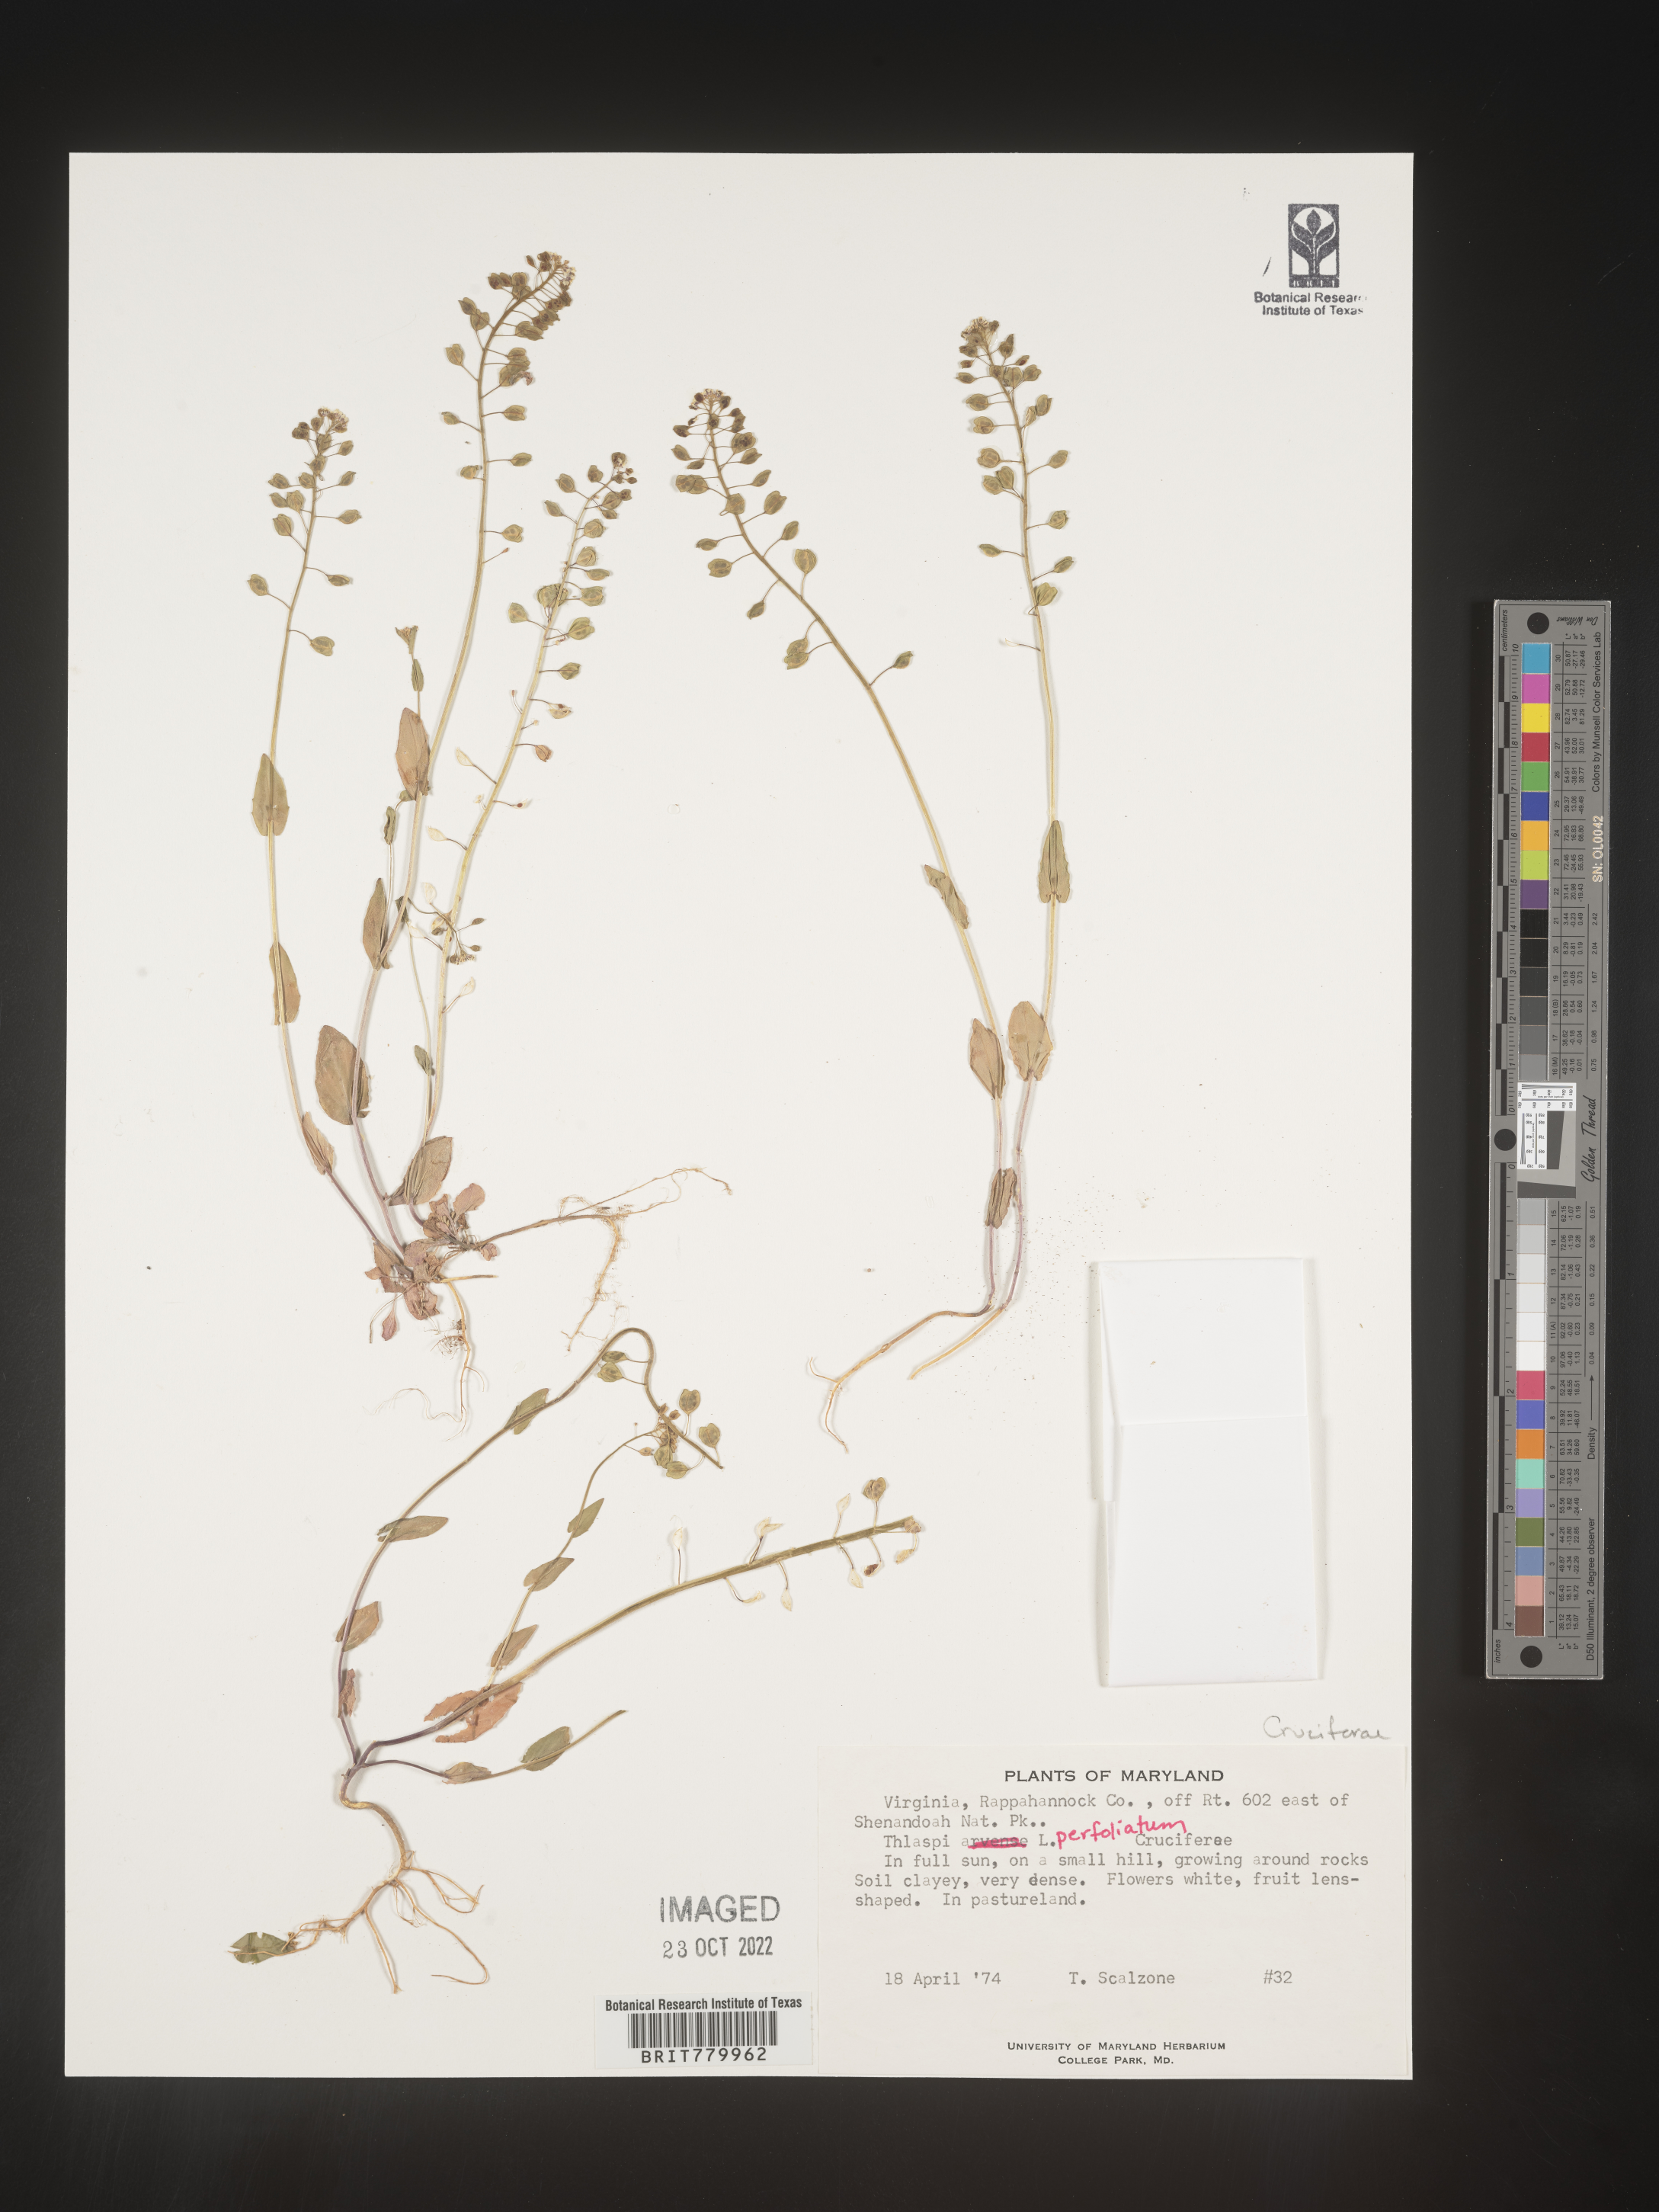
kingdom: Plantae
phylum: Tracheophyta
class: Magnoliopsida
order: Brassicales
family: Brassicaceae
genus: Thlaspi
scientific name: Thlaspi
